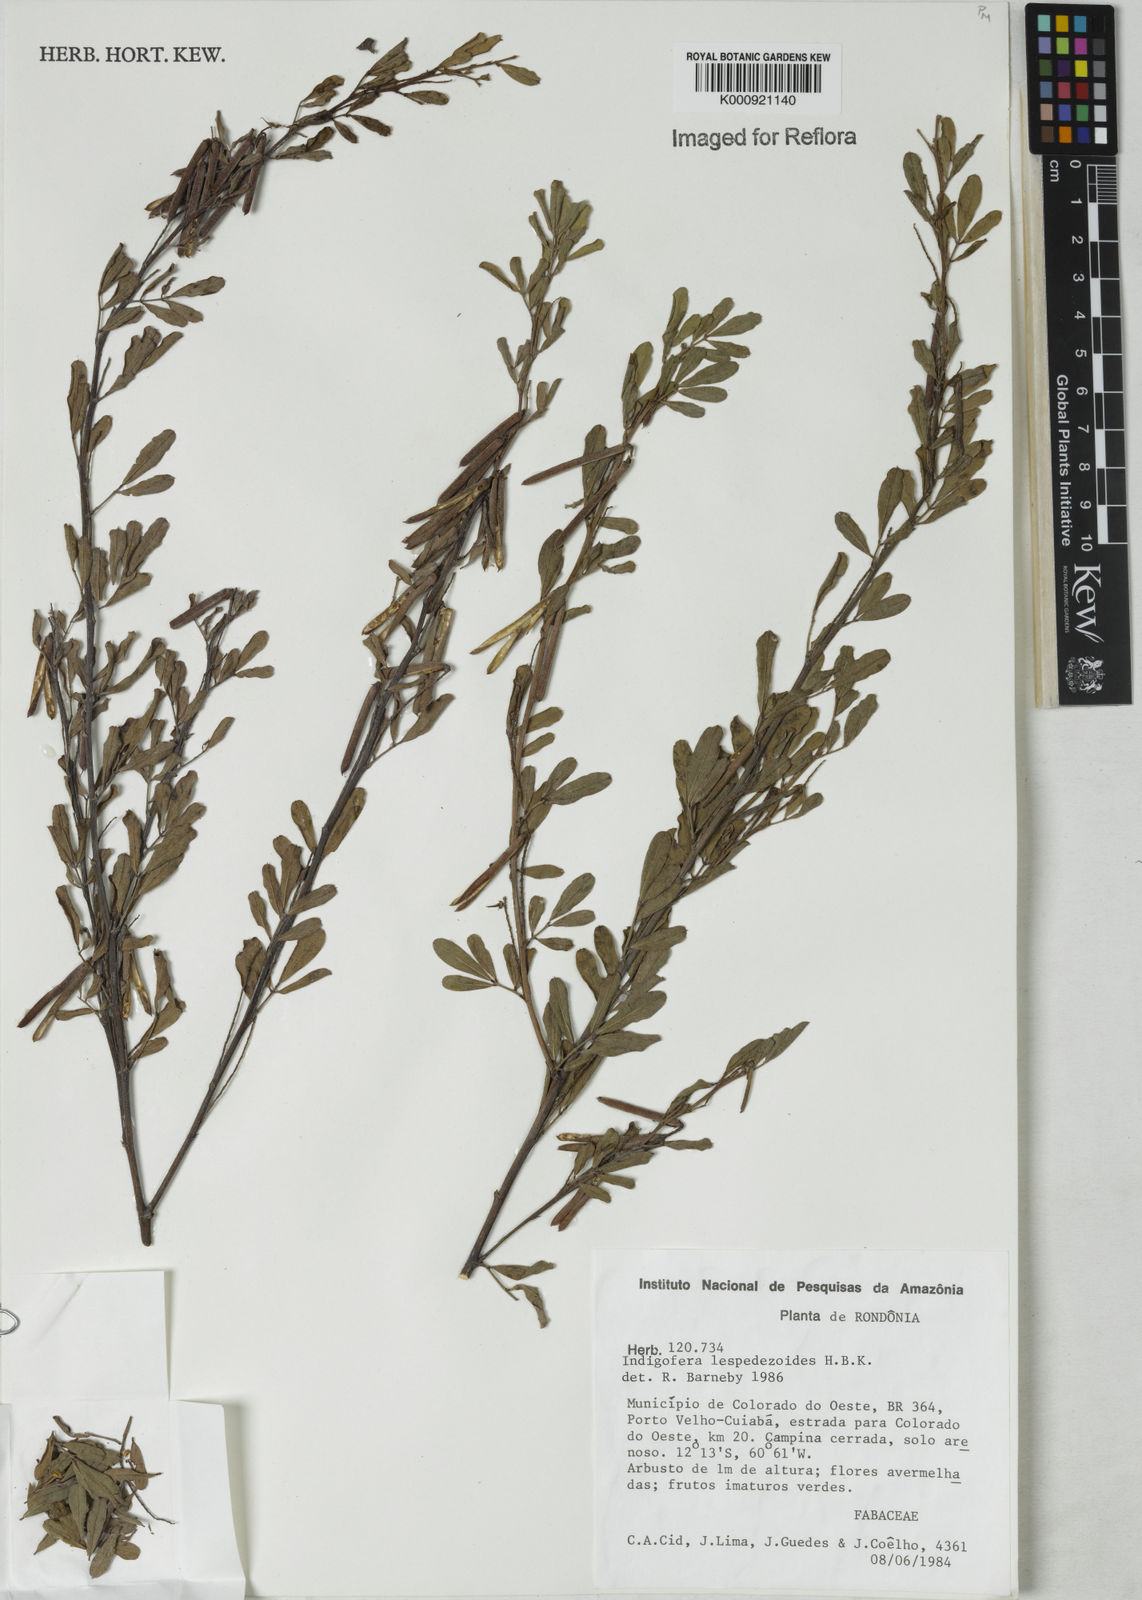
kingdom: Plantae
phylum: Tracheophyta
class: Magnoliopsida
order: Fabales
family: Fabaceae
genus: Indigofera
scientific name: Indigofera lespedezioides
